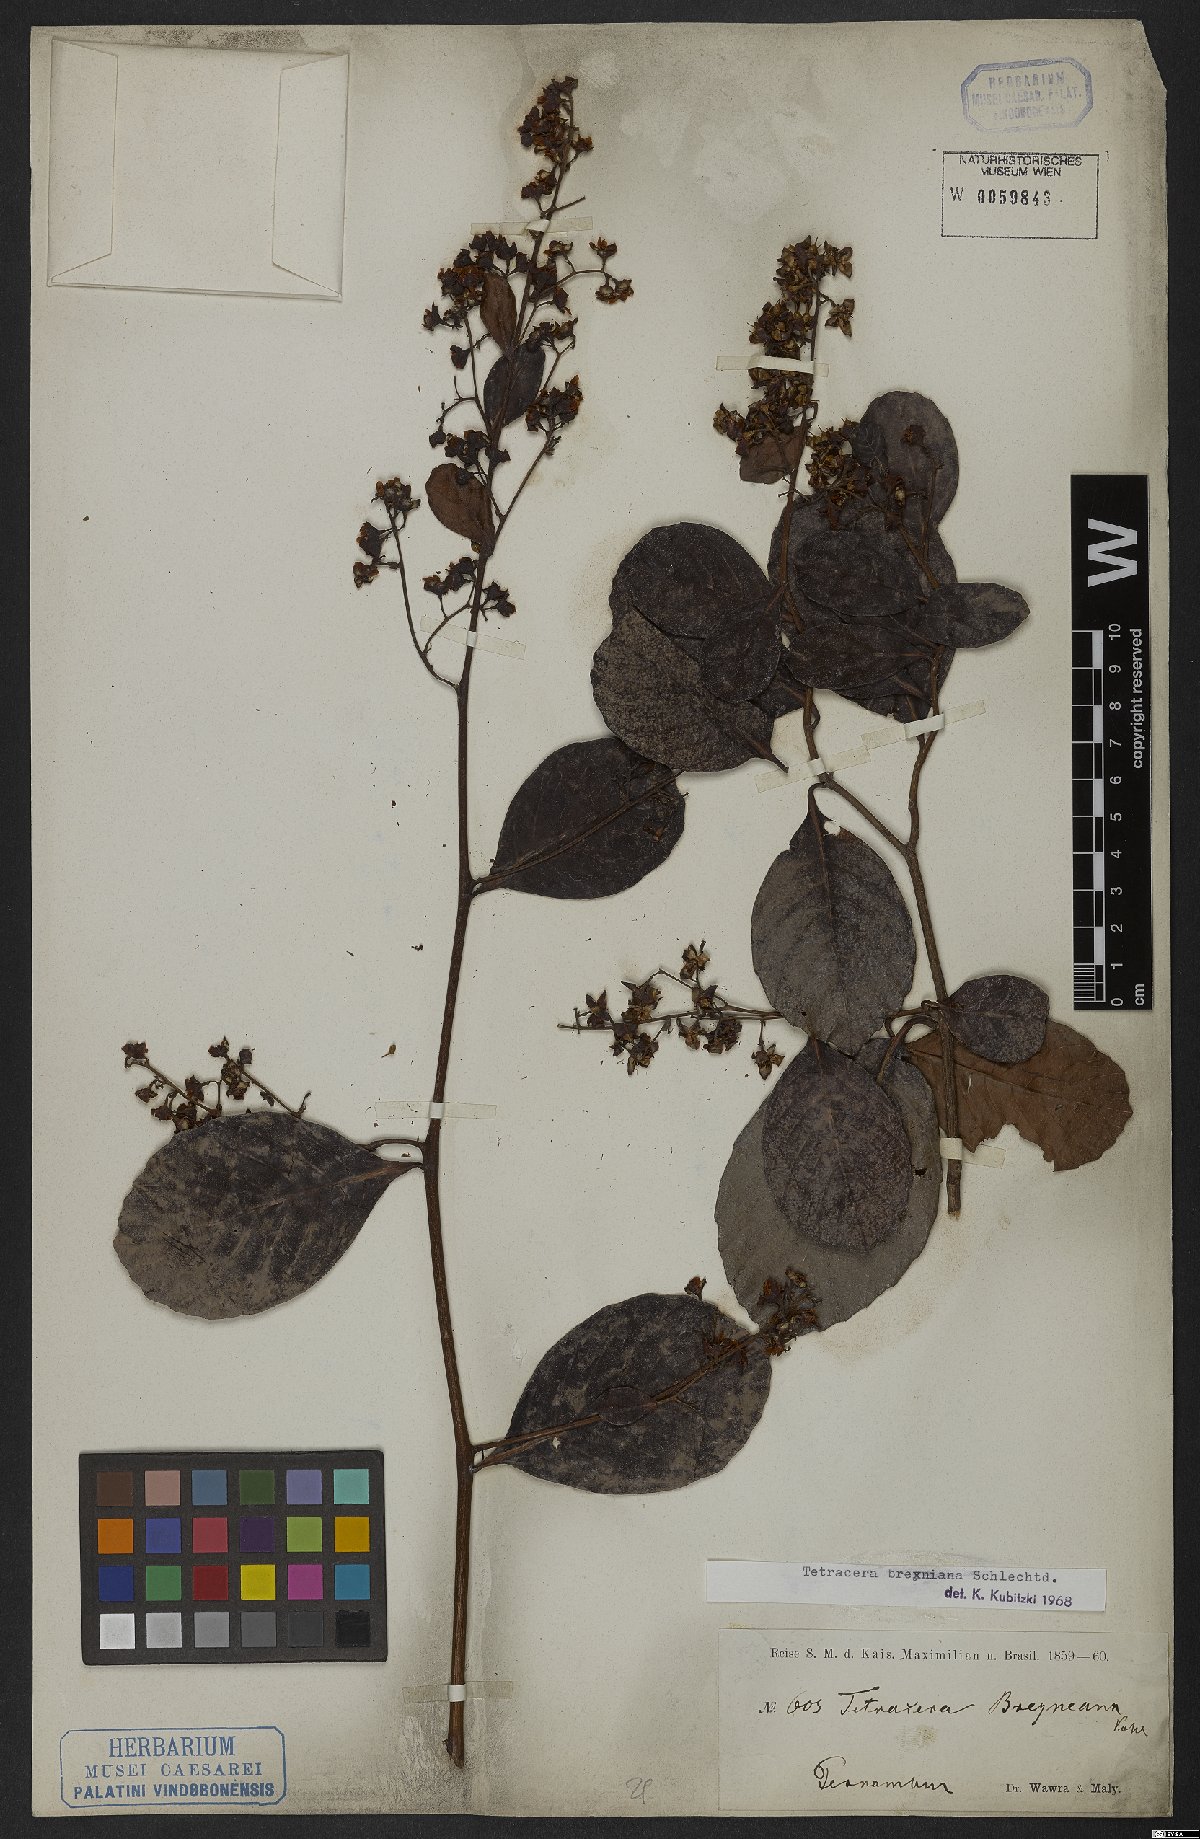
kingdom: Plantae
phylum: Tracheophyta
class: Magnoliopsida
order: Dilleniales
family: Dilleniaceae
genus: Tetracera
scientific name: Tetracera breyniana
